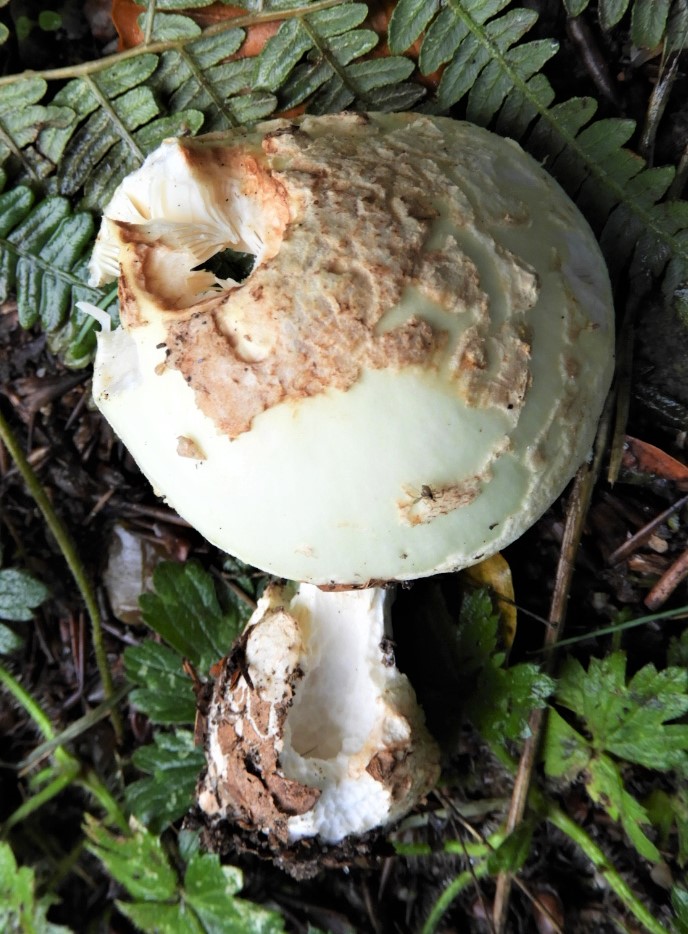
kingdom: Fungi
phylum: Basidiomycota
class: Agaricomycetes
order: Agaricales
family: Amanitaceae
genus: Amanita
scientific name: Amanita citrina
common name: kugleknoldet fluesvamp
